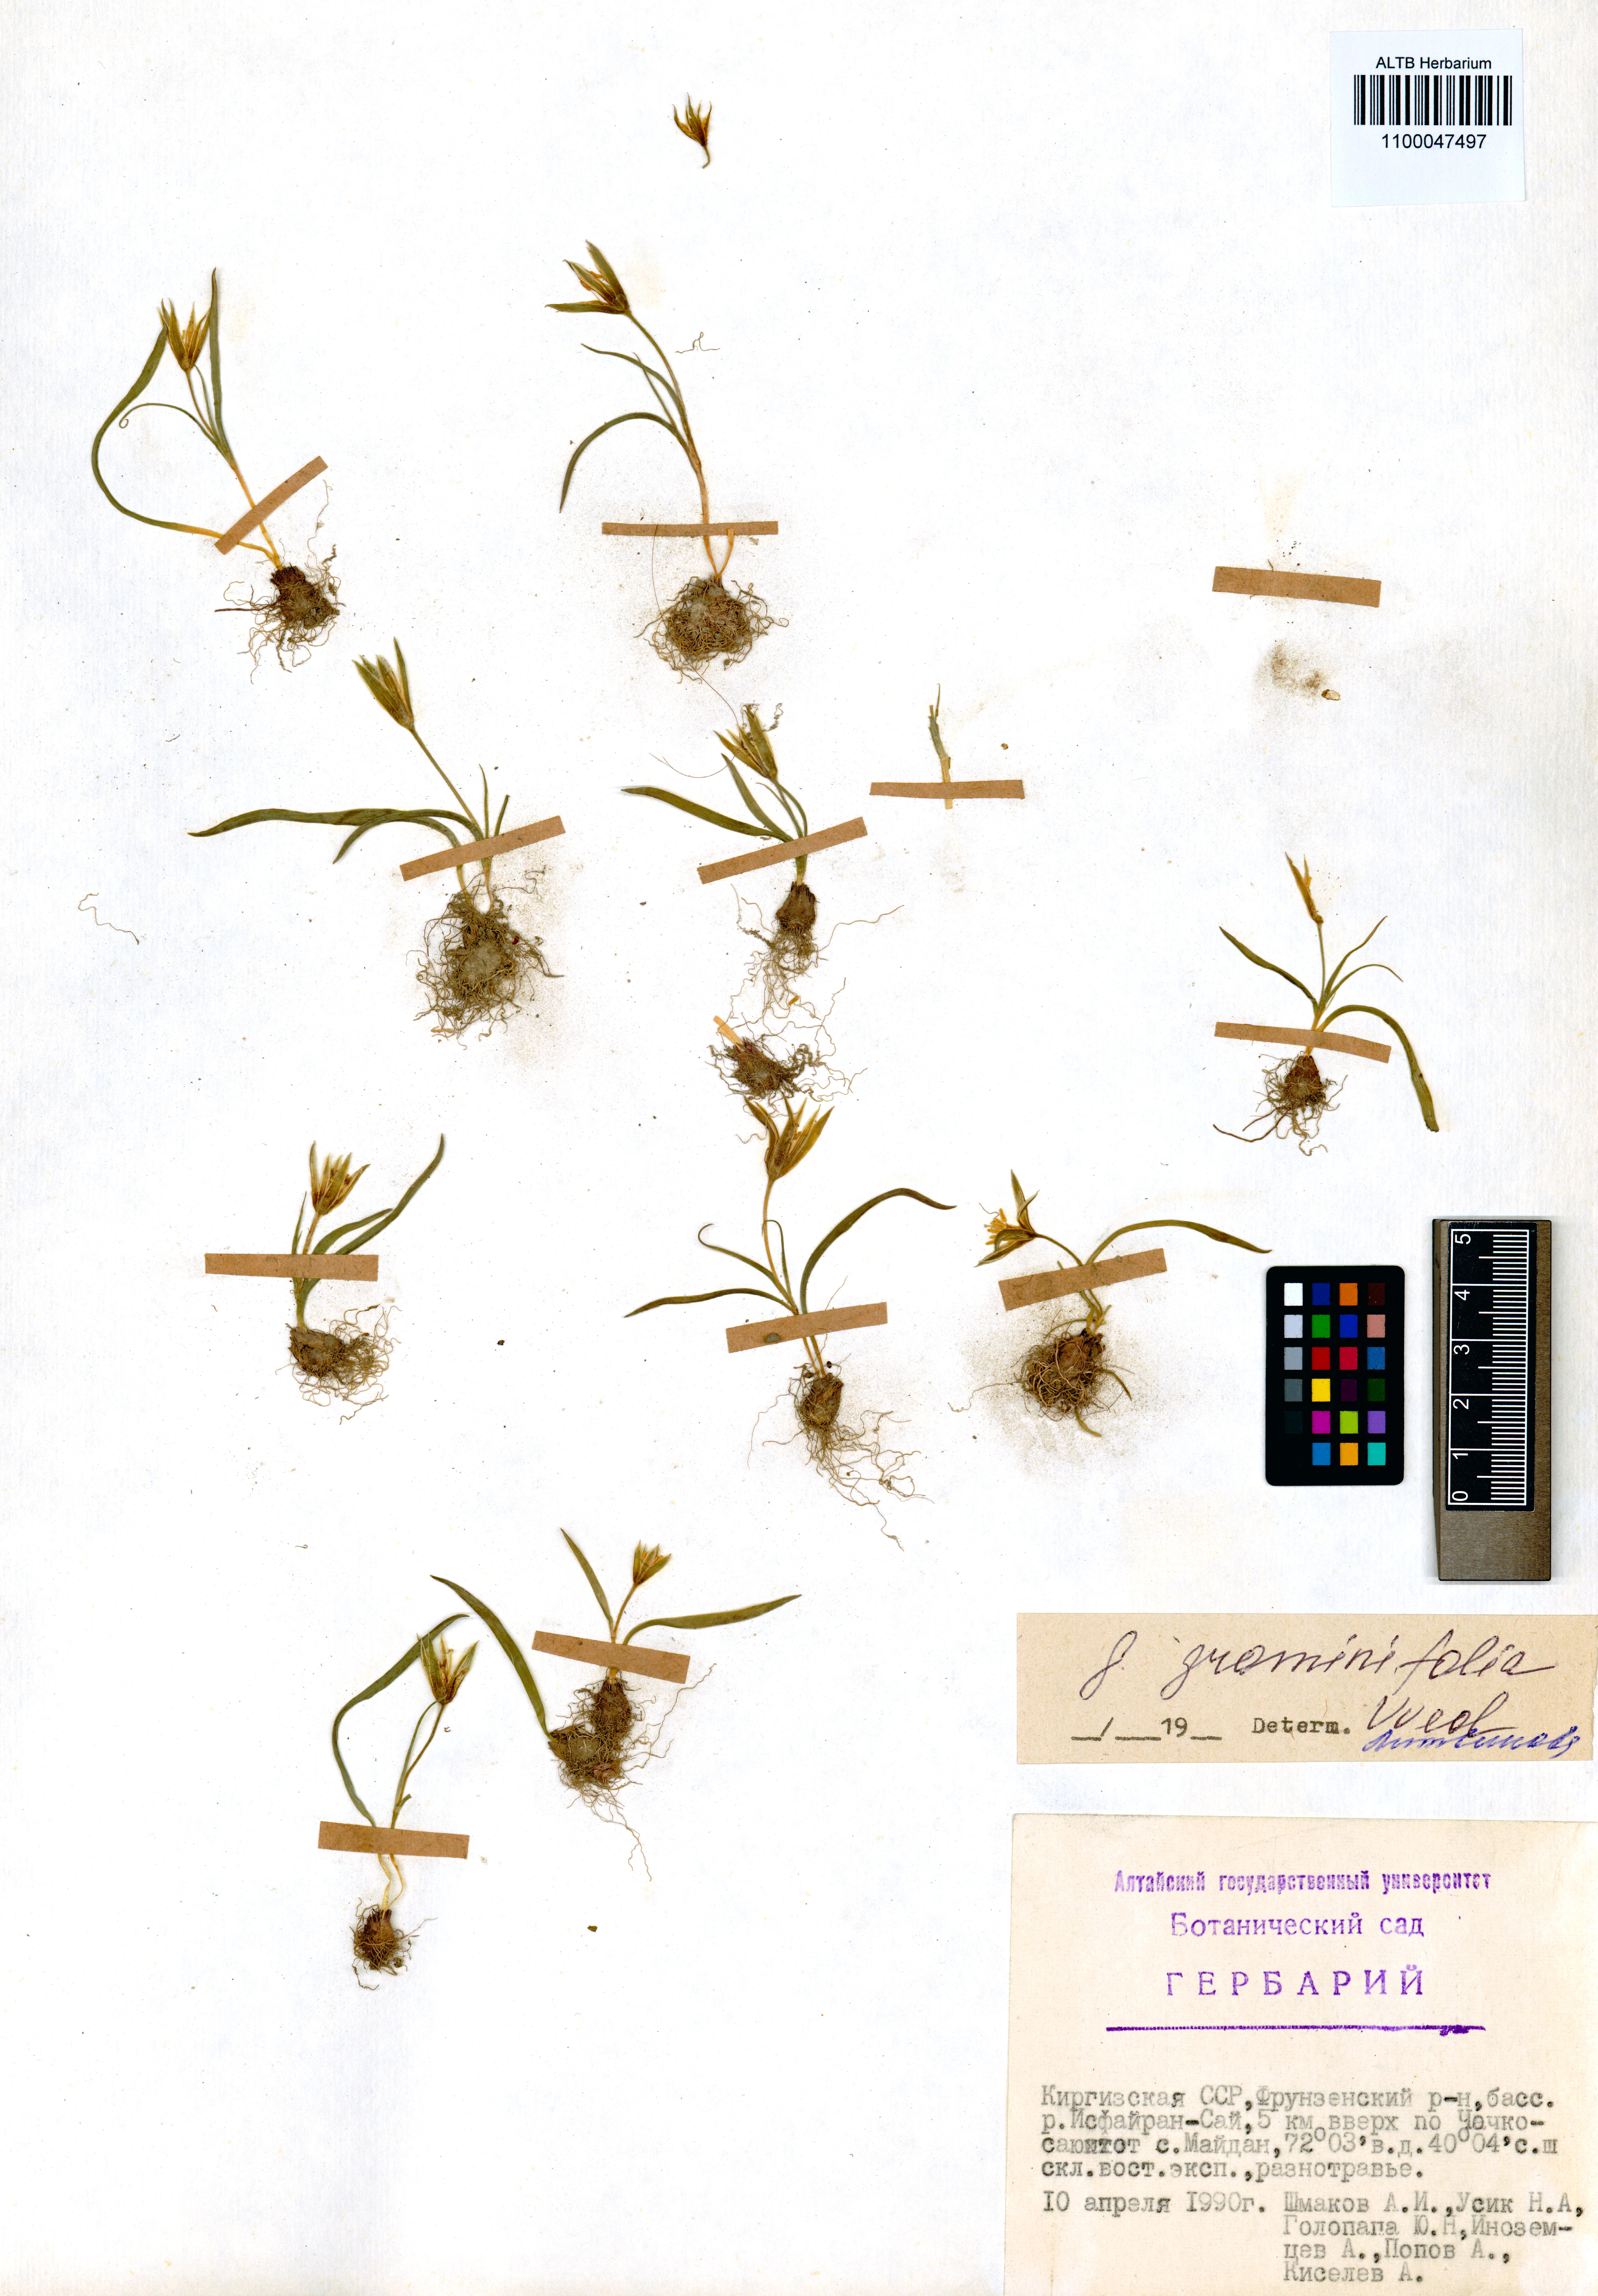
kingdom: Plantae
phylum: Tracheophyta
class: Liliopsida
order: Liliales
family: Liliaceae
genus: Gagea
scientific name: Gagea graminifolia
